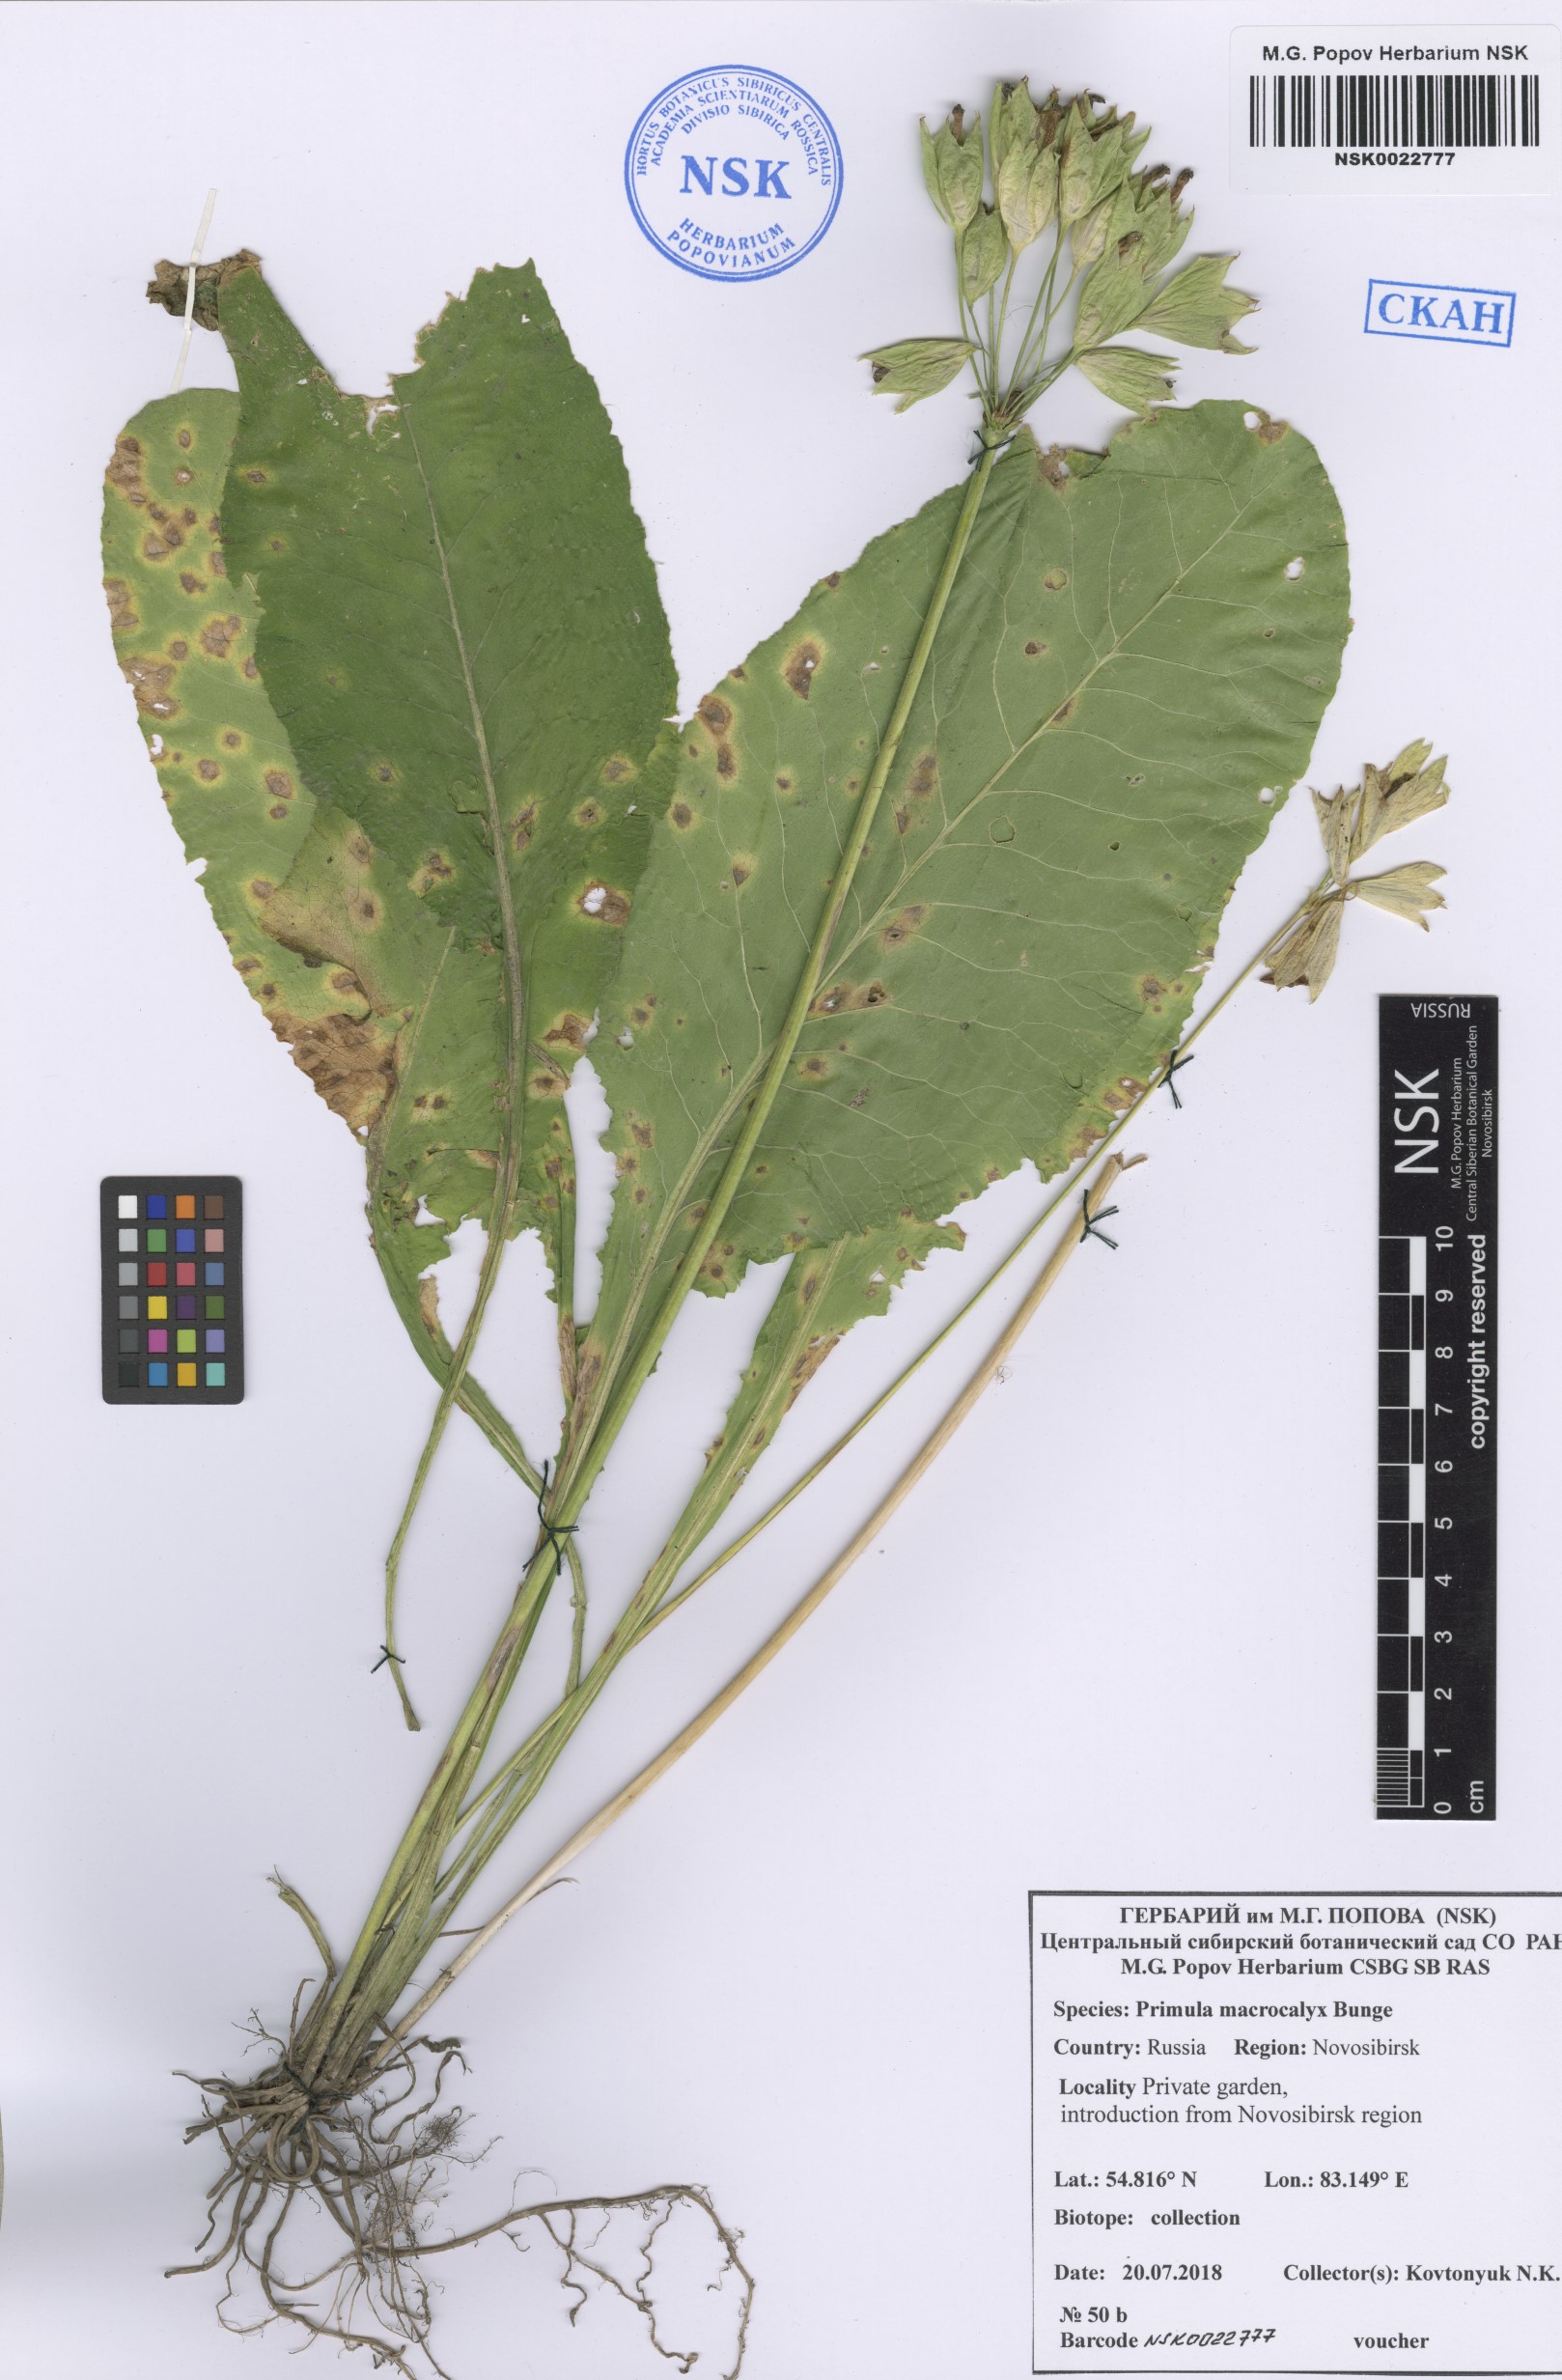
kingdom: Plantae
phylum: Tracheophyta
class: Magnoliopsida
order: Ericales
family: Primulaceae
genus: Primula
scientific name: Primula veris
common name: Cowslip
